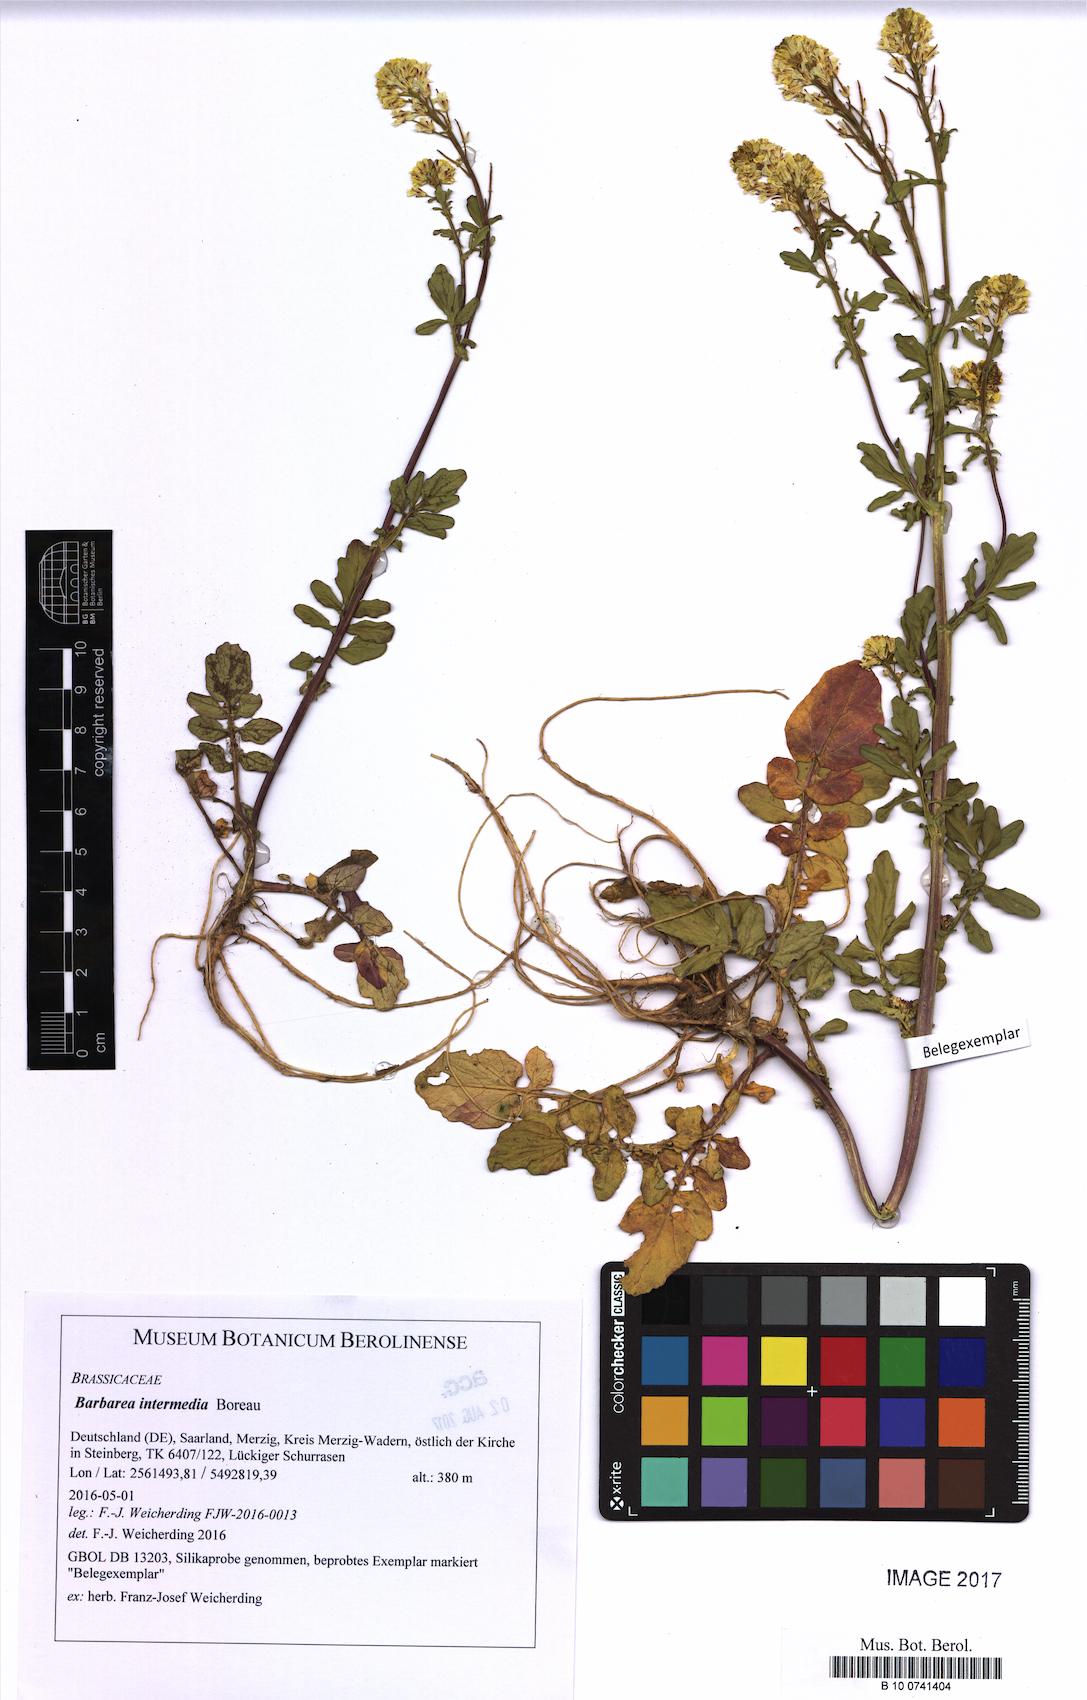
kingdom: Plantae
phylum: Tracheophyta
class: Magnoliopsida
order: Brassicales
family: Brassicaceae
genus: Barbarea
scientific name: Barbarea intermedia
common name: Medium-flowered winter-cress
